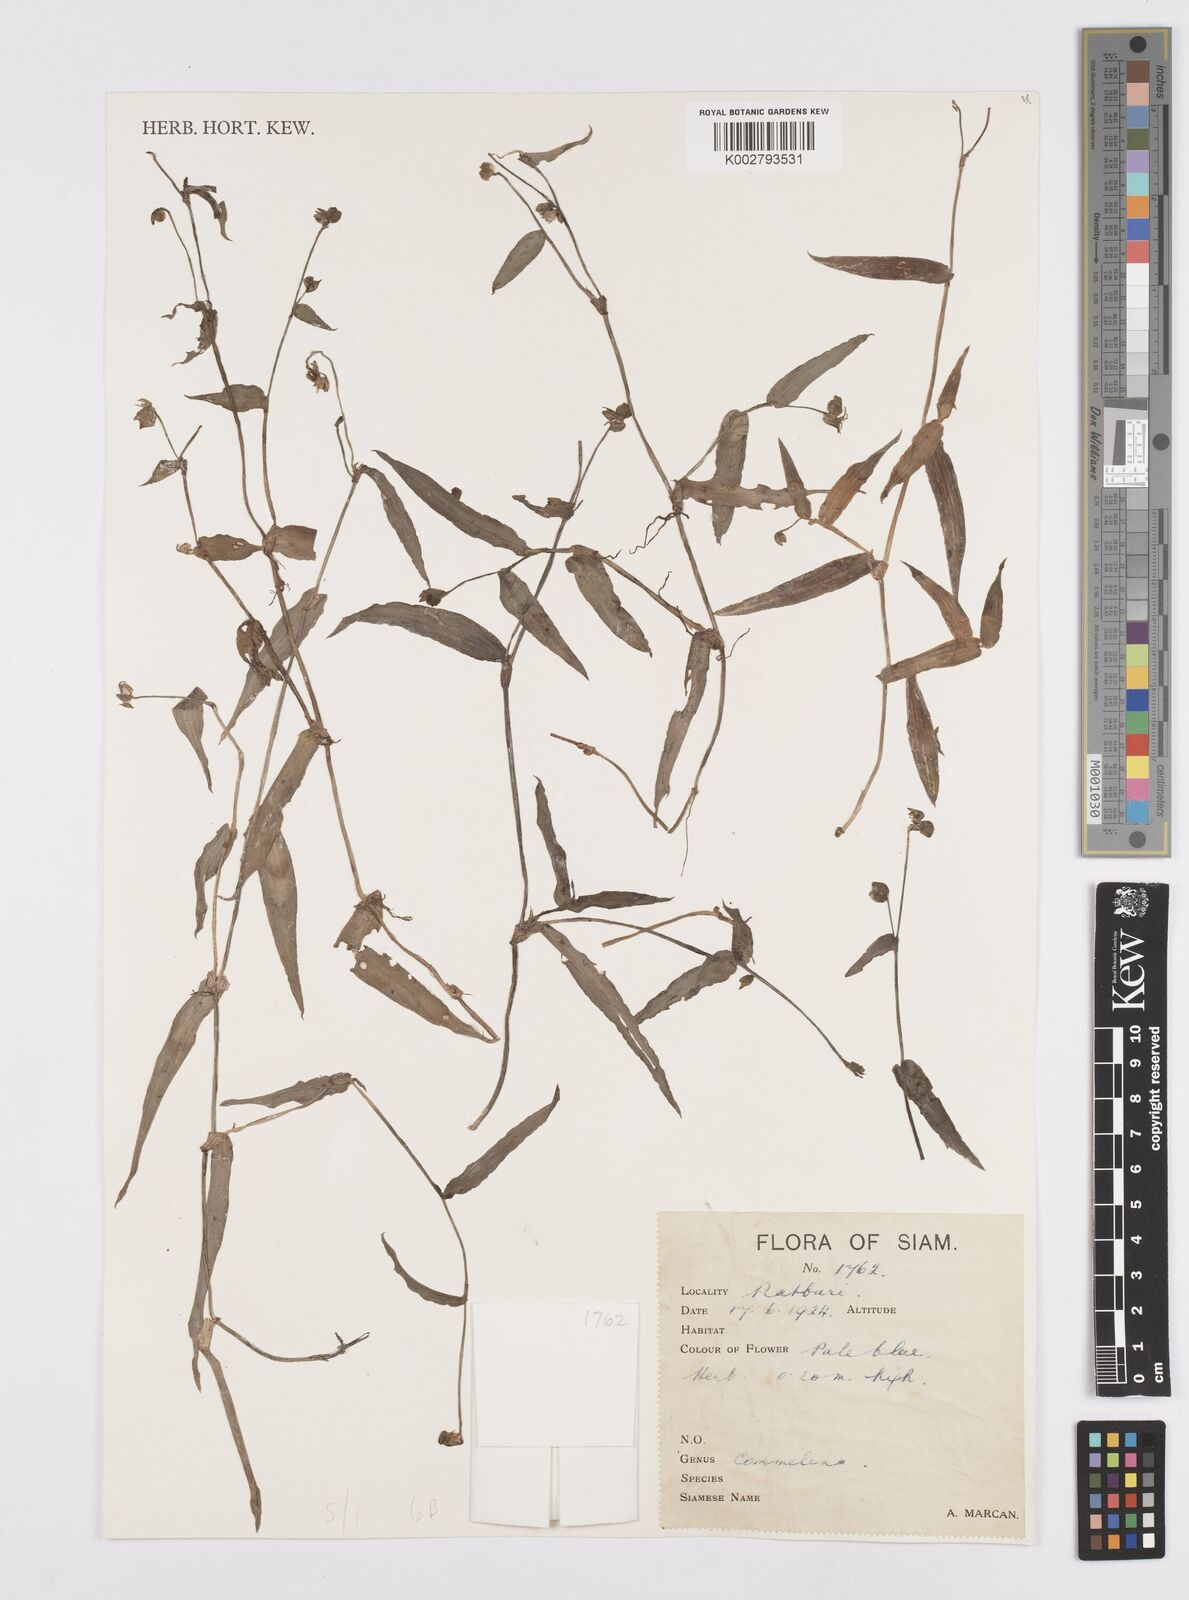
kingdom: Plantae
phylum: Tracheophyta
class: Liliopsida
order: Commelinales
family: Commelinaceae
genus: Murdannia
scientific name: Murdannia
